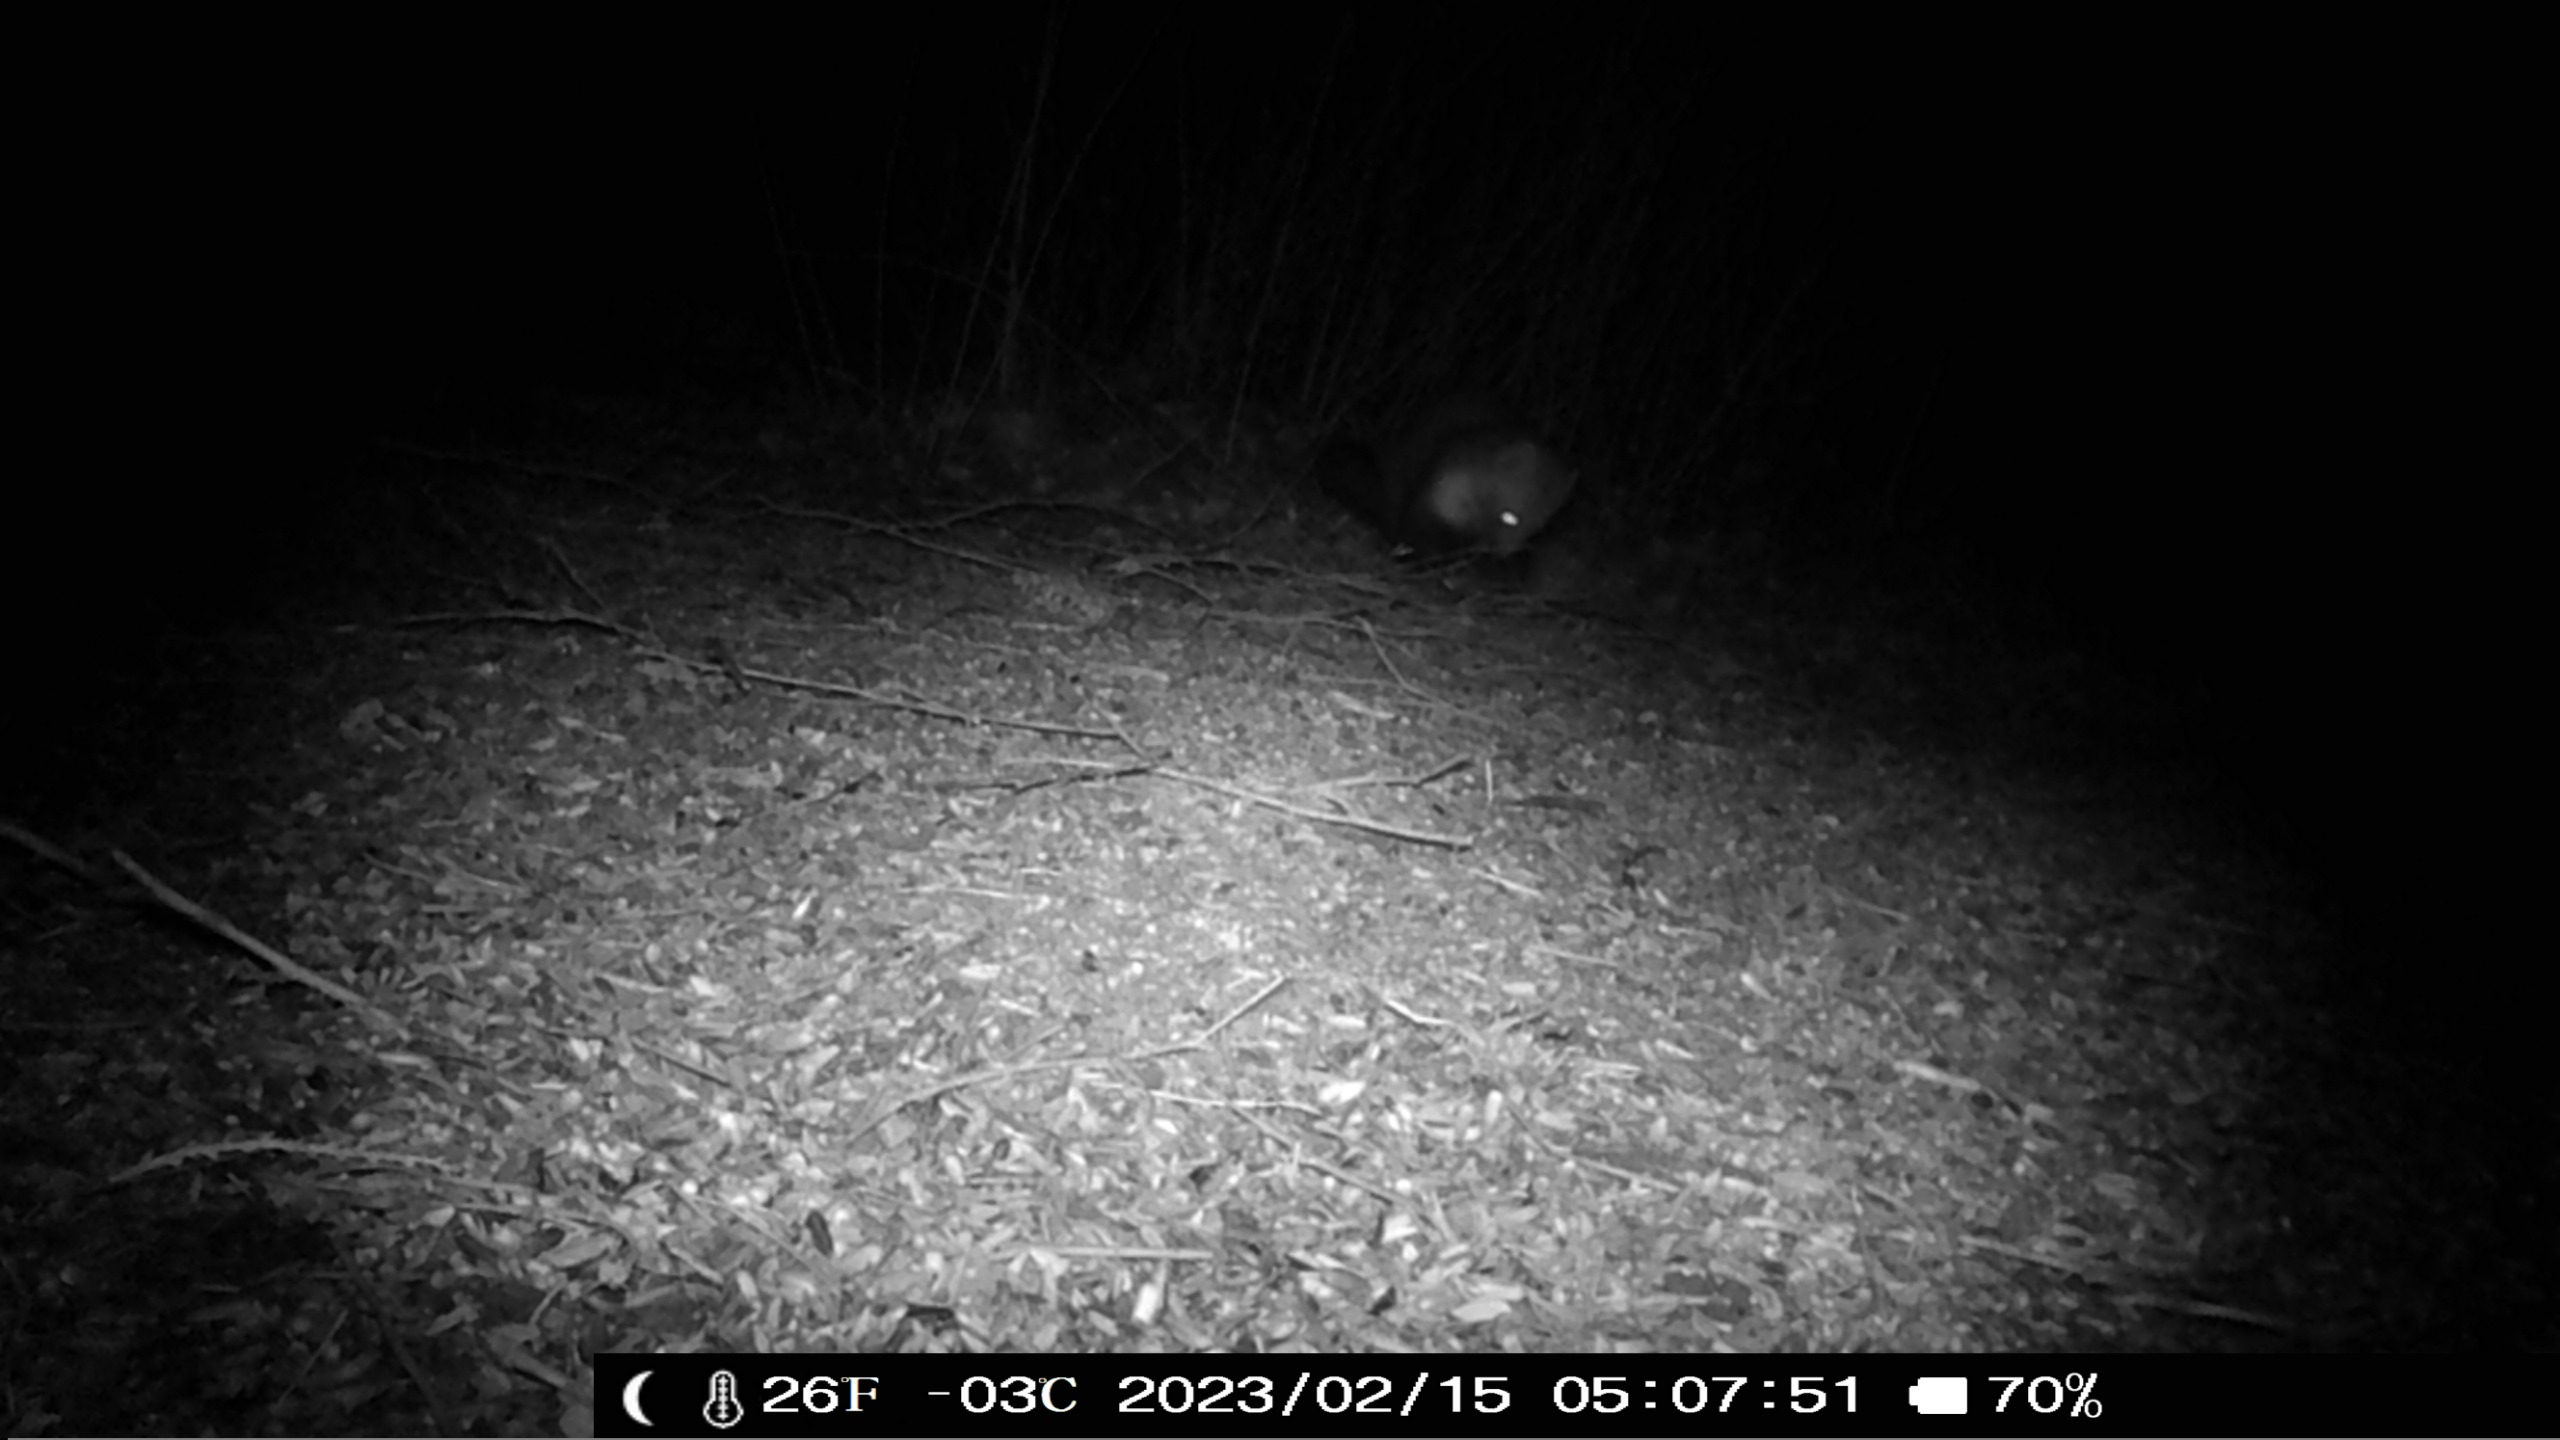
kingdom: Animalia
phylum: Chordata
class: Mammalia
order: Carnivora
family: Mustelidae
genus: Martes
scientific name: Martes foina
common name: Husmår
